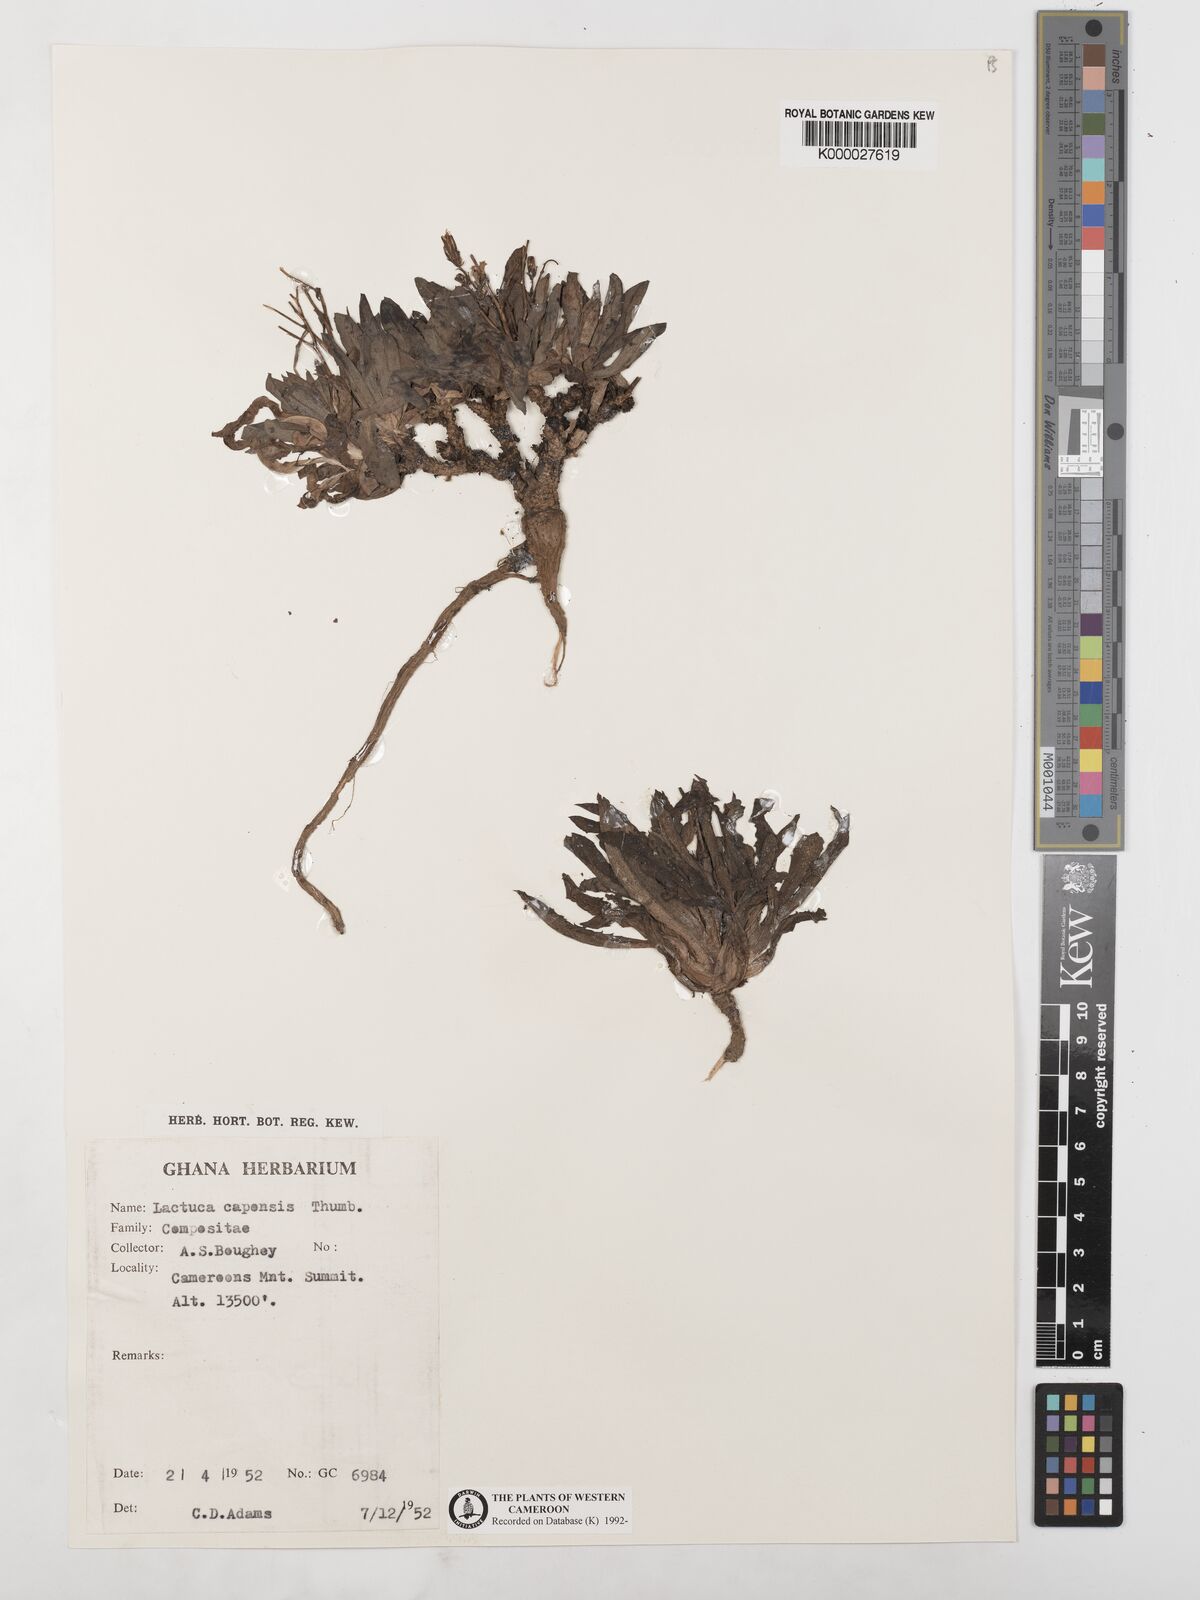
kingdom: Plantae
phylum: Tracheophyta
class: Magnoliopsida
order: Asterales
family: Asteraceae
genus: Lactuca
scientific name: Lactuca inermis
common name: Wild lettuce
